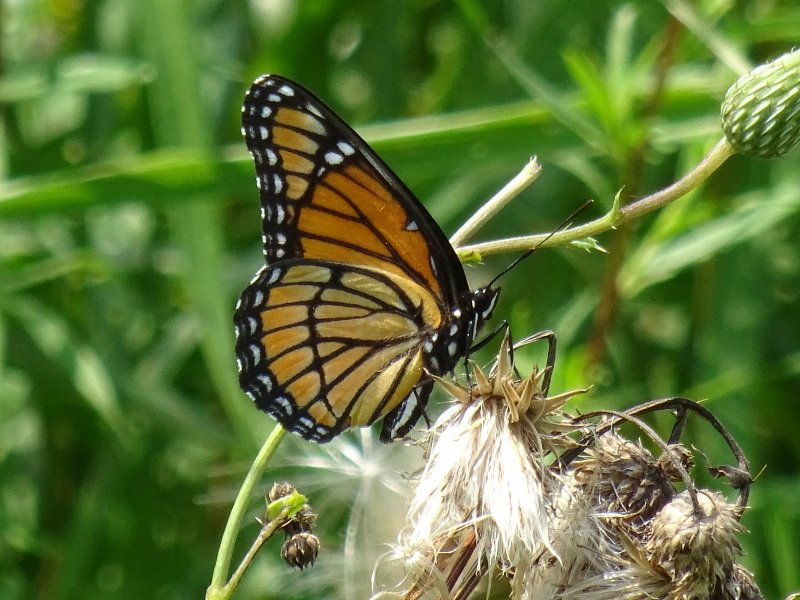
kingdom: Animalia
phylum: Arthropoda
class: Insecta
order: Lepidoptera
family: Nymphalidae
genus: Limenitis
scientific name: Limenitis archippus
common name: Viceroy
